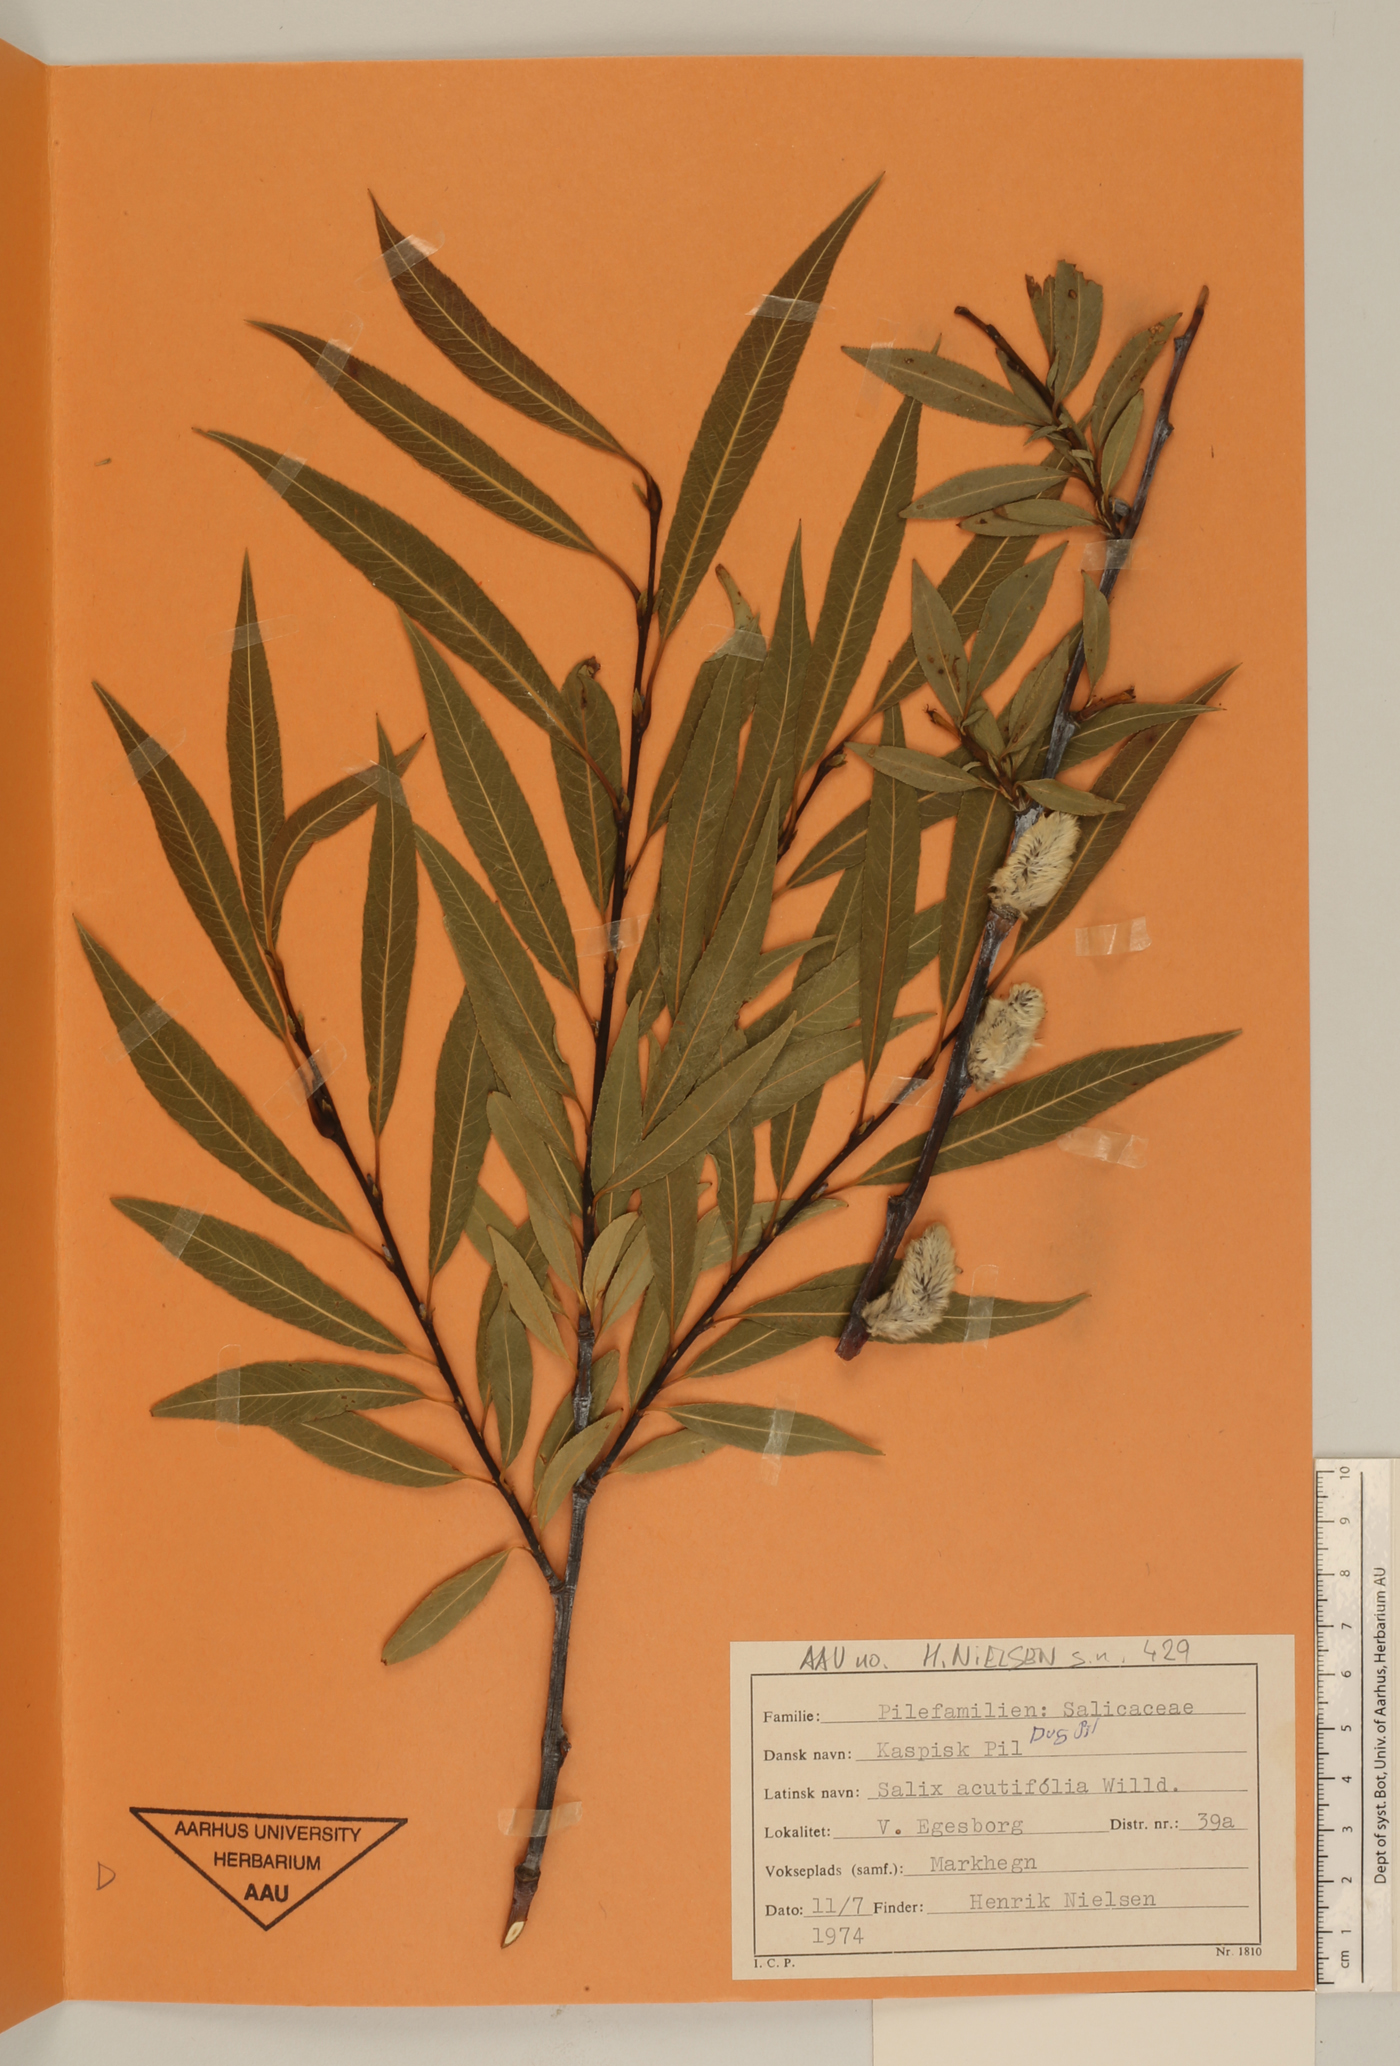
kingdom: Plantae
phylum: Tracheophyta
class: Magnoliopsida
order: Malpighiales
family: Salicaceae
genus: Salix
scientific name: Salix acutifolia
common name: Siberian violet-willow
